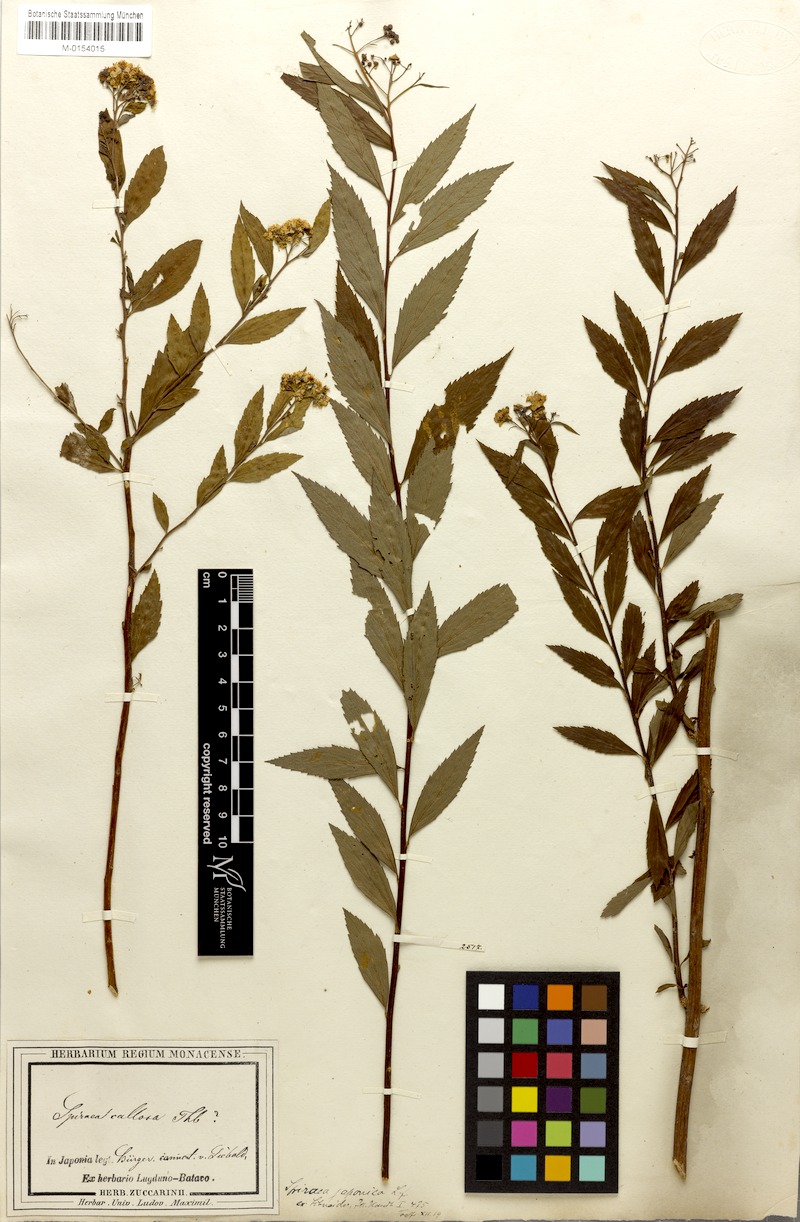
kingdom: Plantae
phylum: Tracheophyta
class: Magnoliopsida
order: Rosales
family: Rosaceae
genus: Spiraea
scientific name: Spiraea japonica
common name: Japanese spiraea
